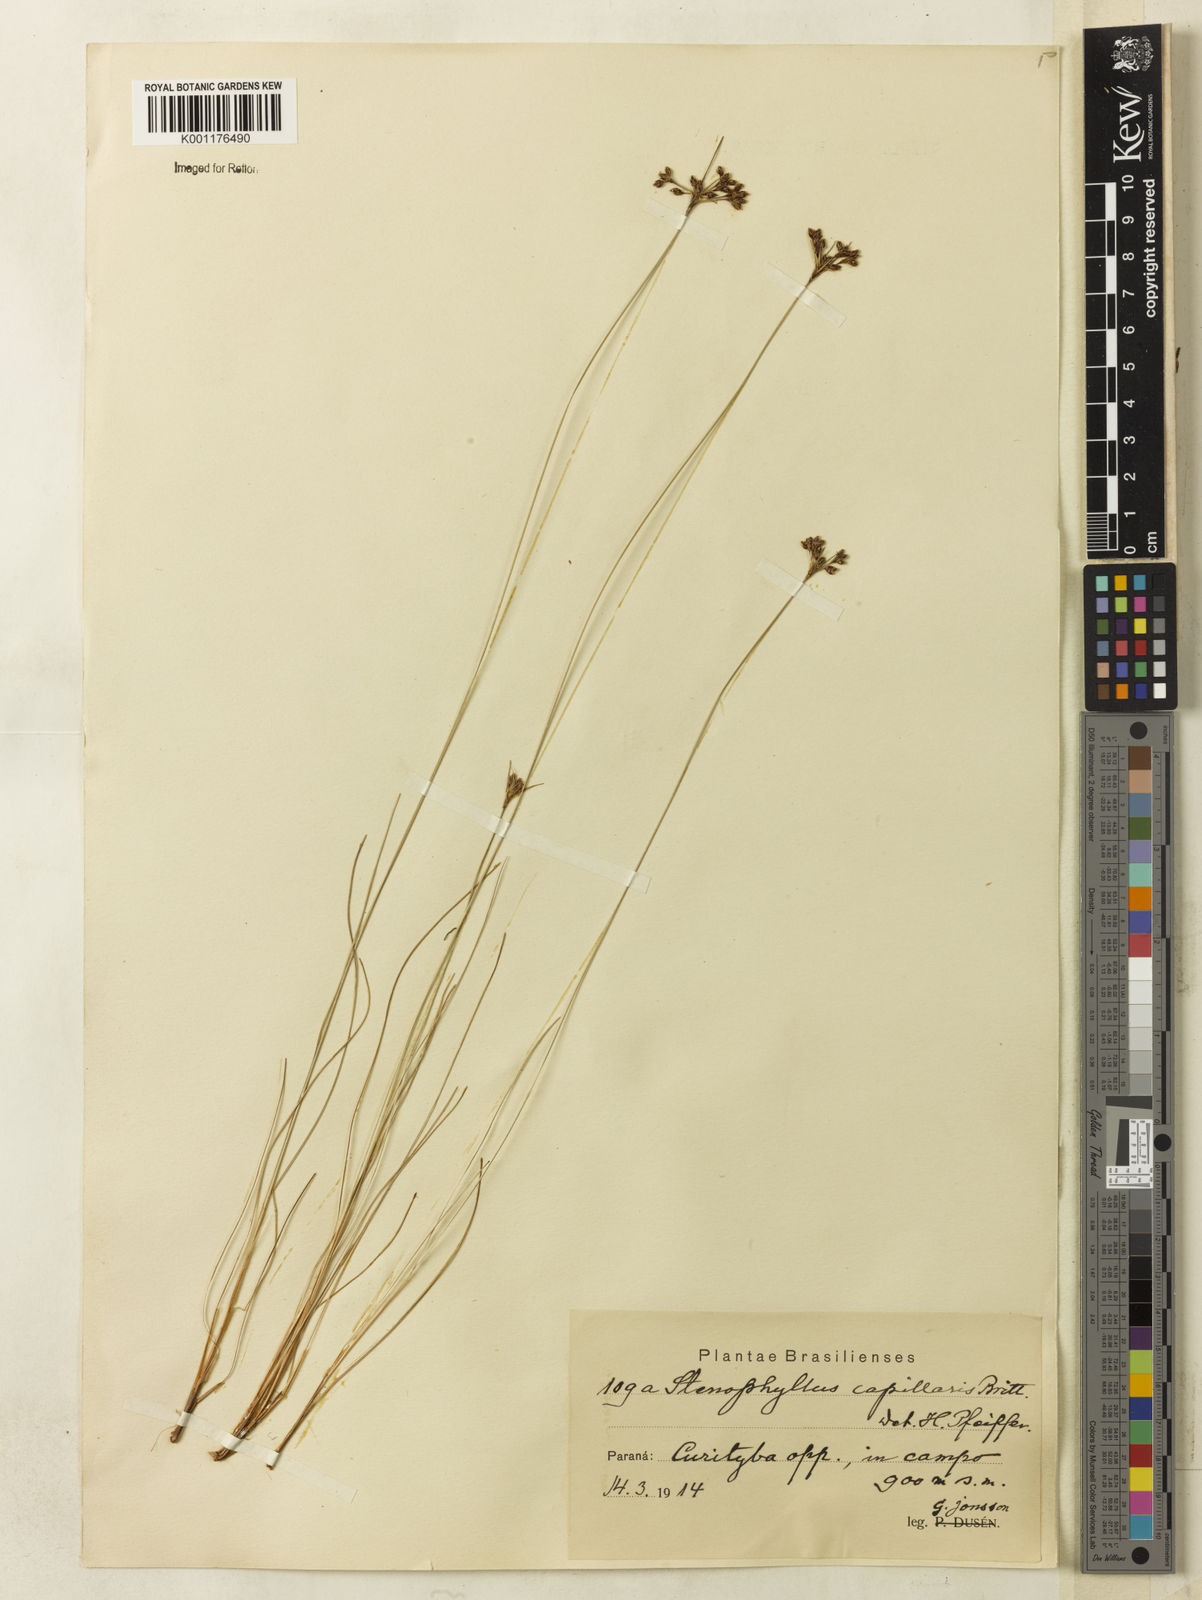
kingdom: Plantae
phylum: Tracheophyta
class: Liliopsida
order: Poales
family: Cyperaceae
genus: Bulbostylis
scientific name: Bulbostylis capillaris
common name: Densetuft hairsedge
